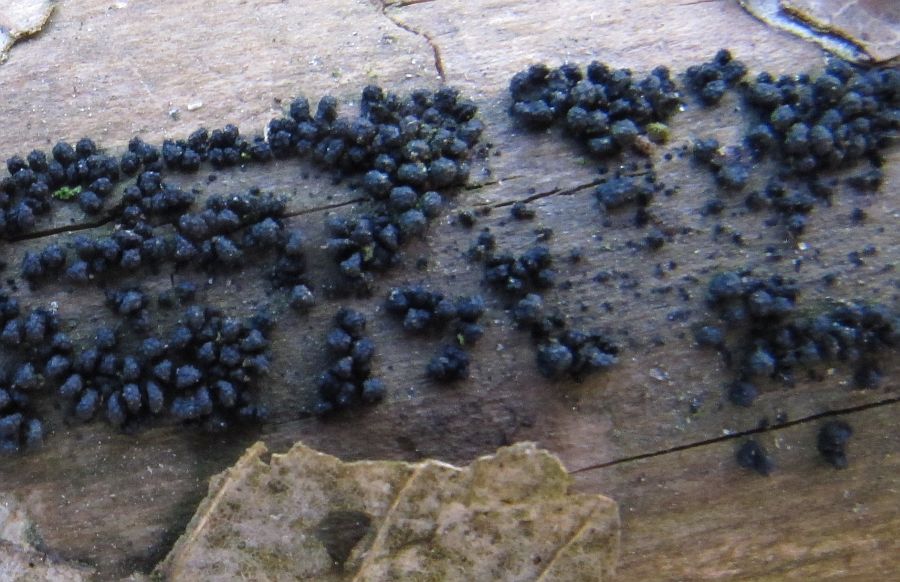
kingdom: Fungi
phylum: Ascomycota
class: Sordariomycetes
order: Coronophorales
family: Bertiaceae
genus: Bertia
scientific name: Bertia moriformis
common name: almindelig morbærkerne
